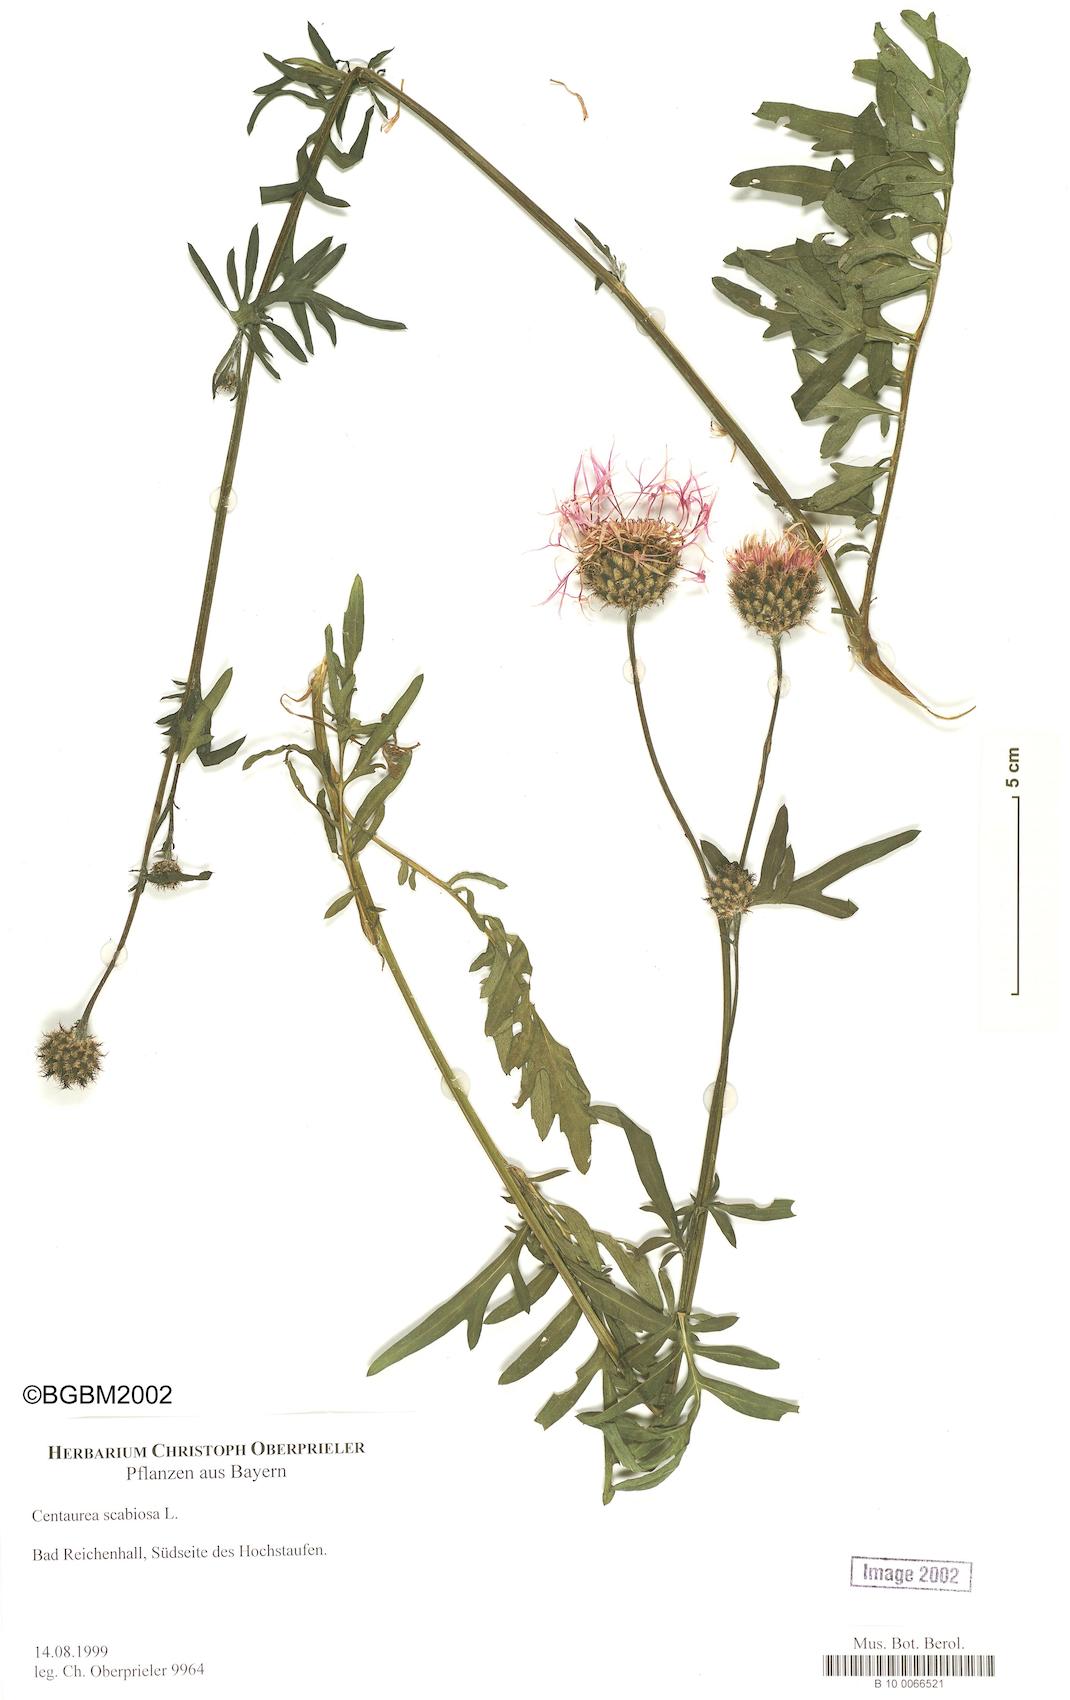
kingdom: Plantae
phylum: Tracheophyta
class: Magnoliopsida
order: Asterales
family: Asteraceae
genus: Centaurea
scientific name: Centaurea scabiosa
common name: Greater knapweed
